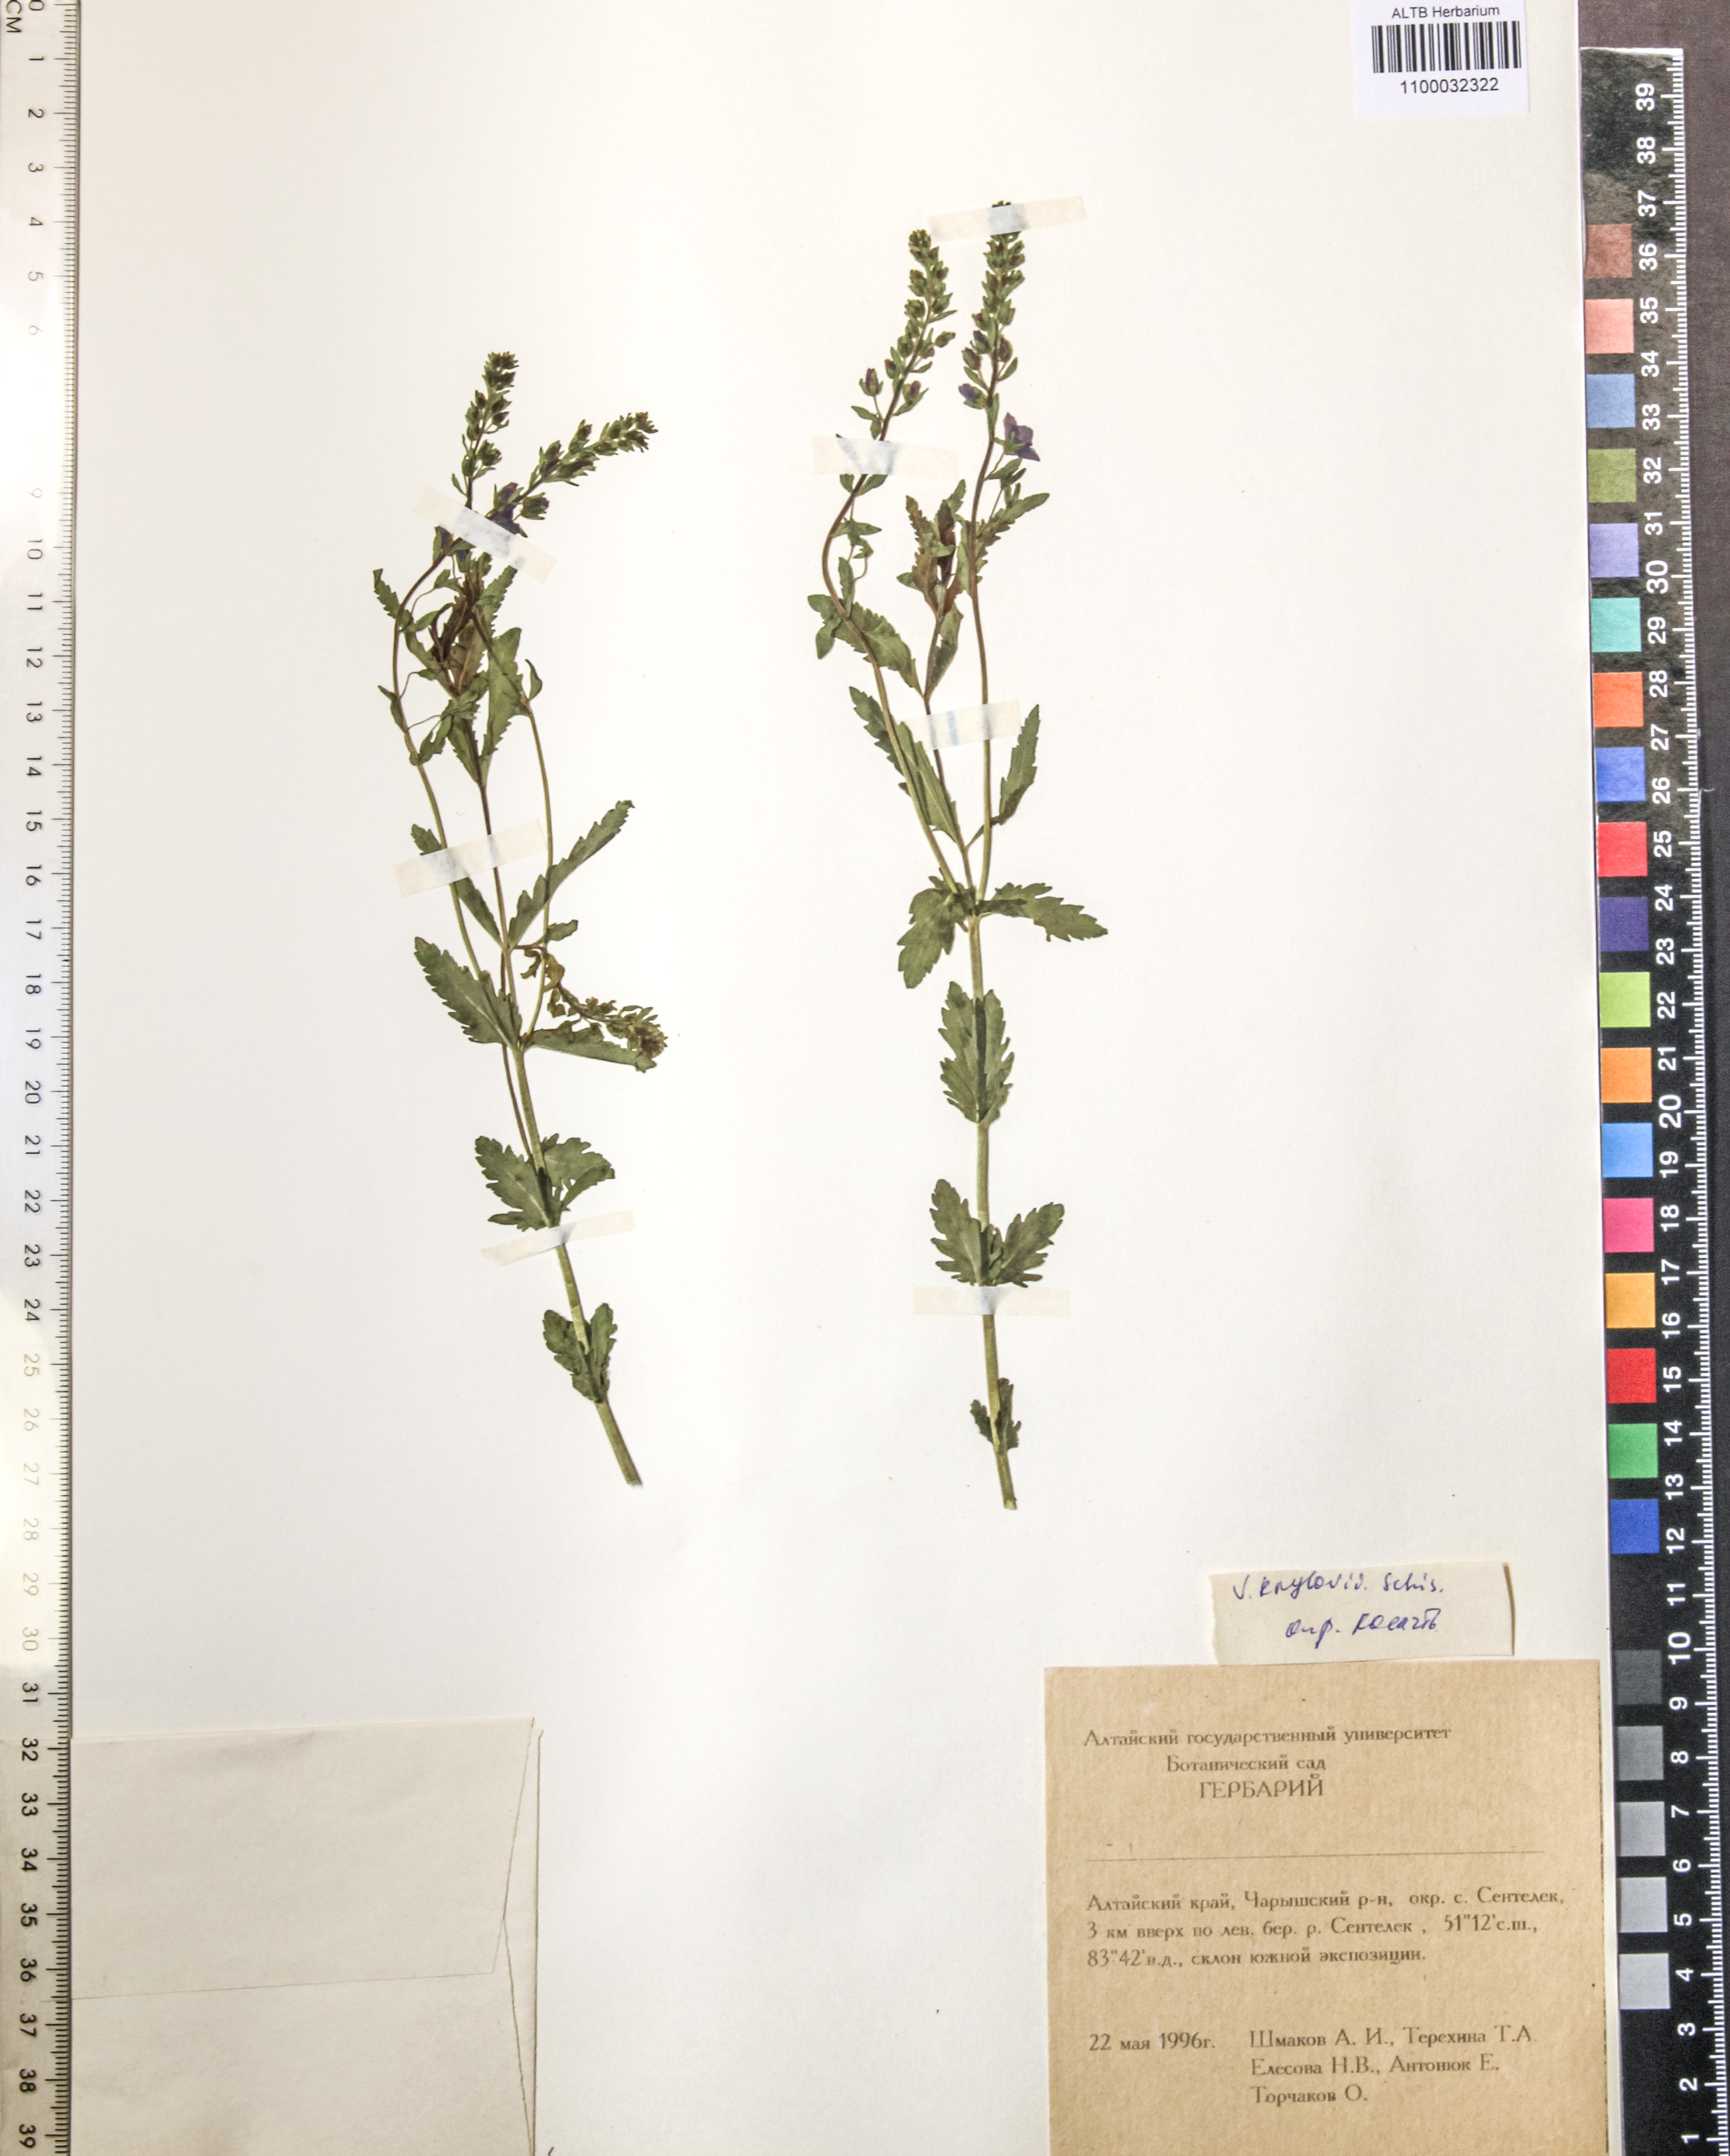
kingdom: Plantae
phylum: Tracheophyta
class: Magnoliopsida
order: Lamiales
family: Plantaginaceae
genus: Veronica
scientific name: Veronica krylovii
